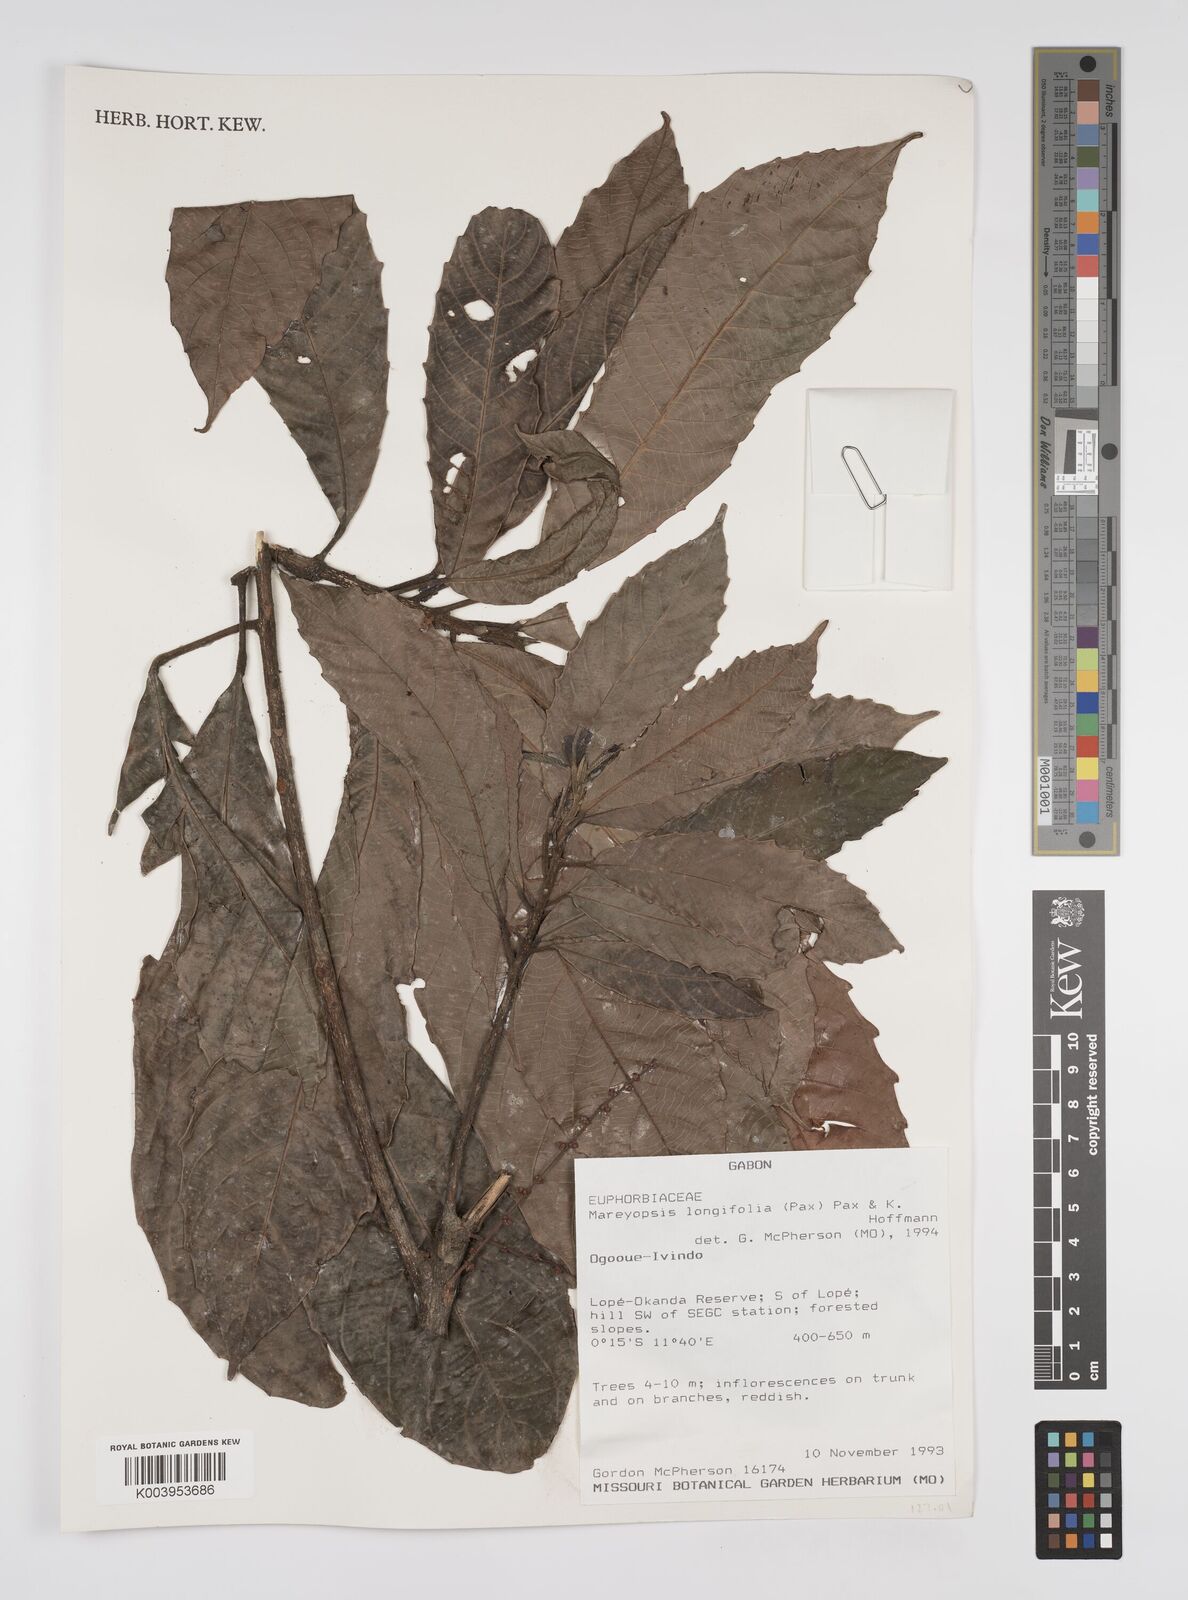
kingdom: Plantae
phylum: Tracheophyta
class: Magnoliopsida
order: Malpighiales
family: Euphorbiaceae
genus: Mareyopsis
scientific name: Mareyopsis longifolia
